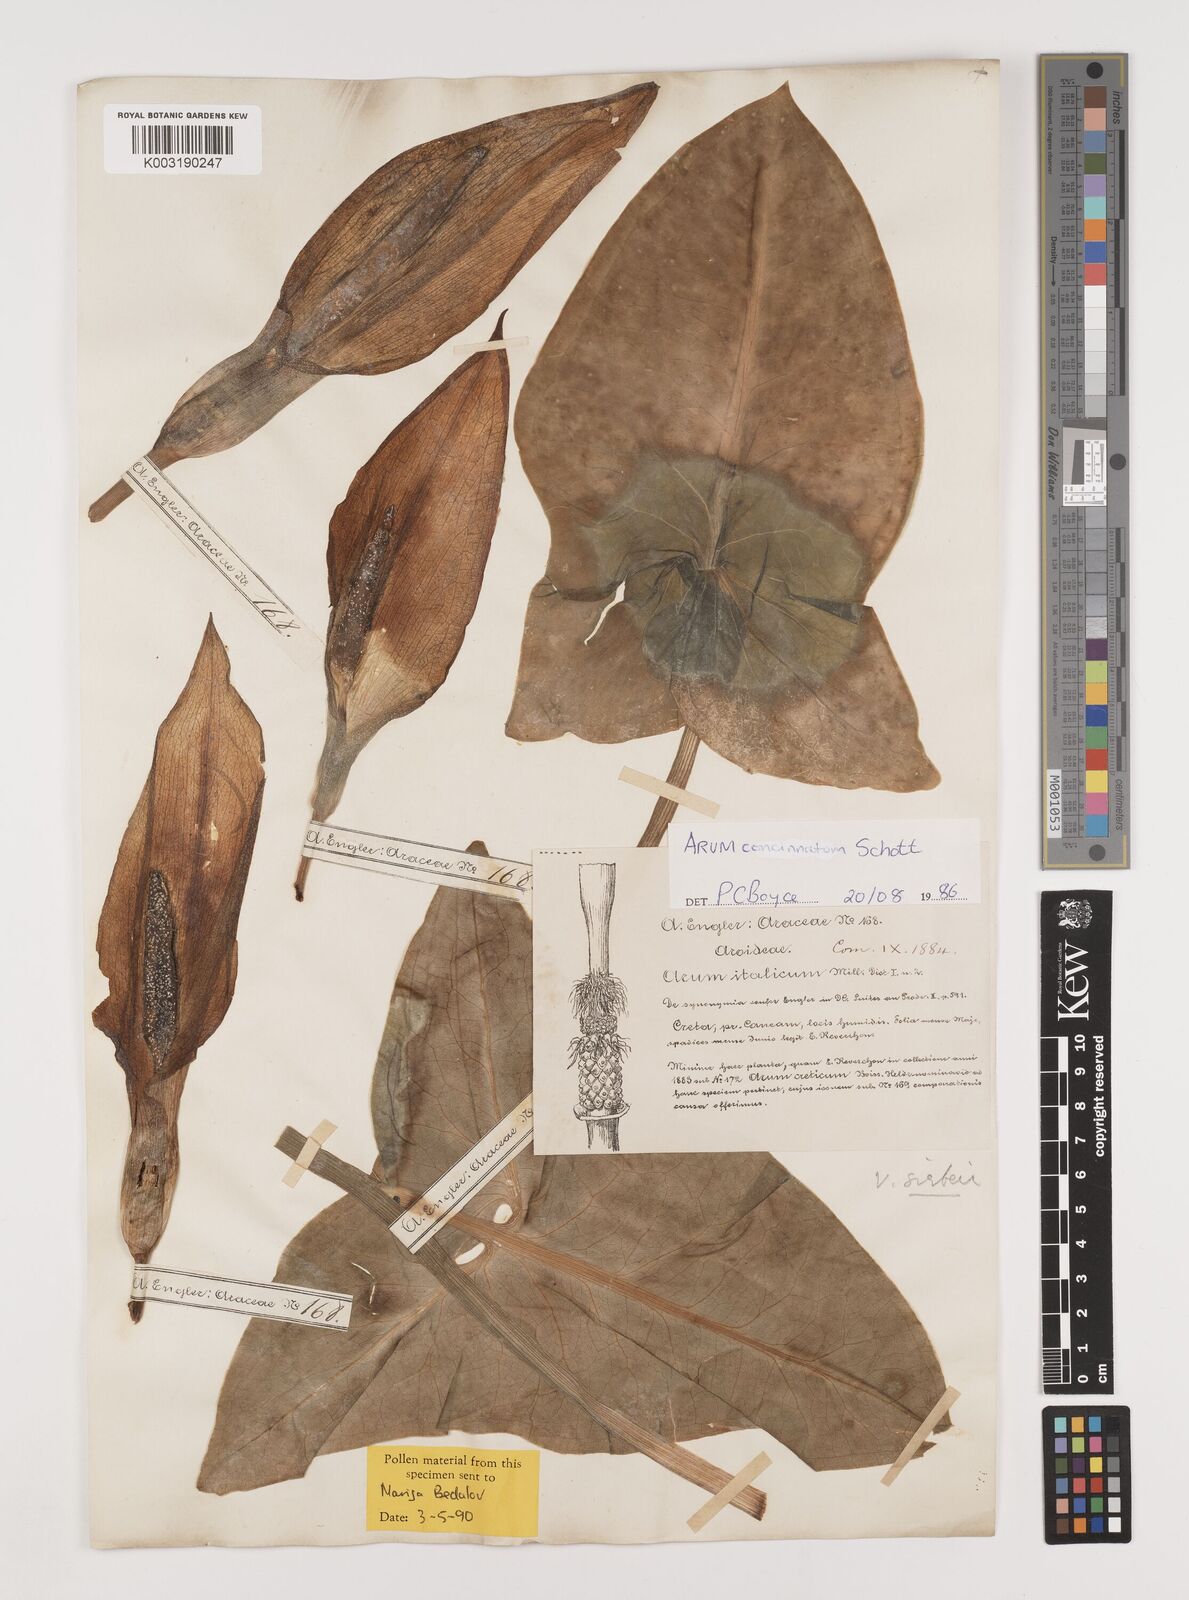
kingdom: Plantae
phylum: Tracheophyta
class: Liliopsida
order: Alismatales
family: Araceae
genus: Arum
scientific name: Arum concinnatum
